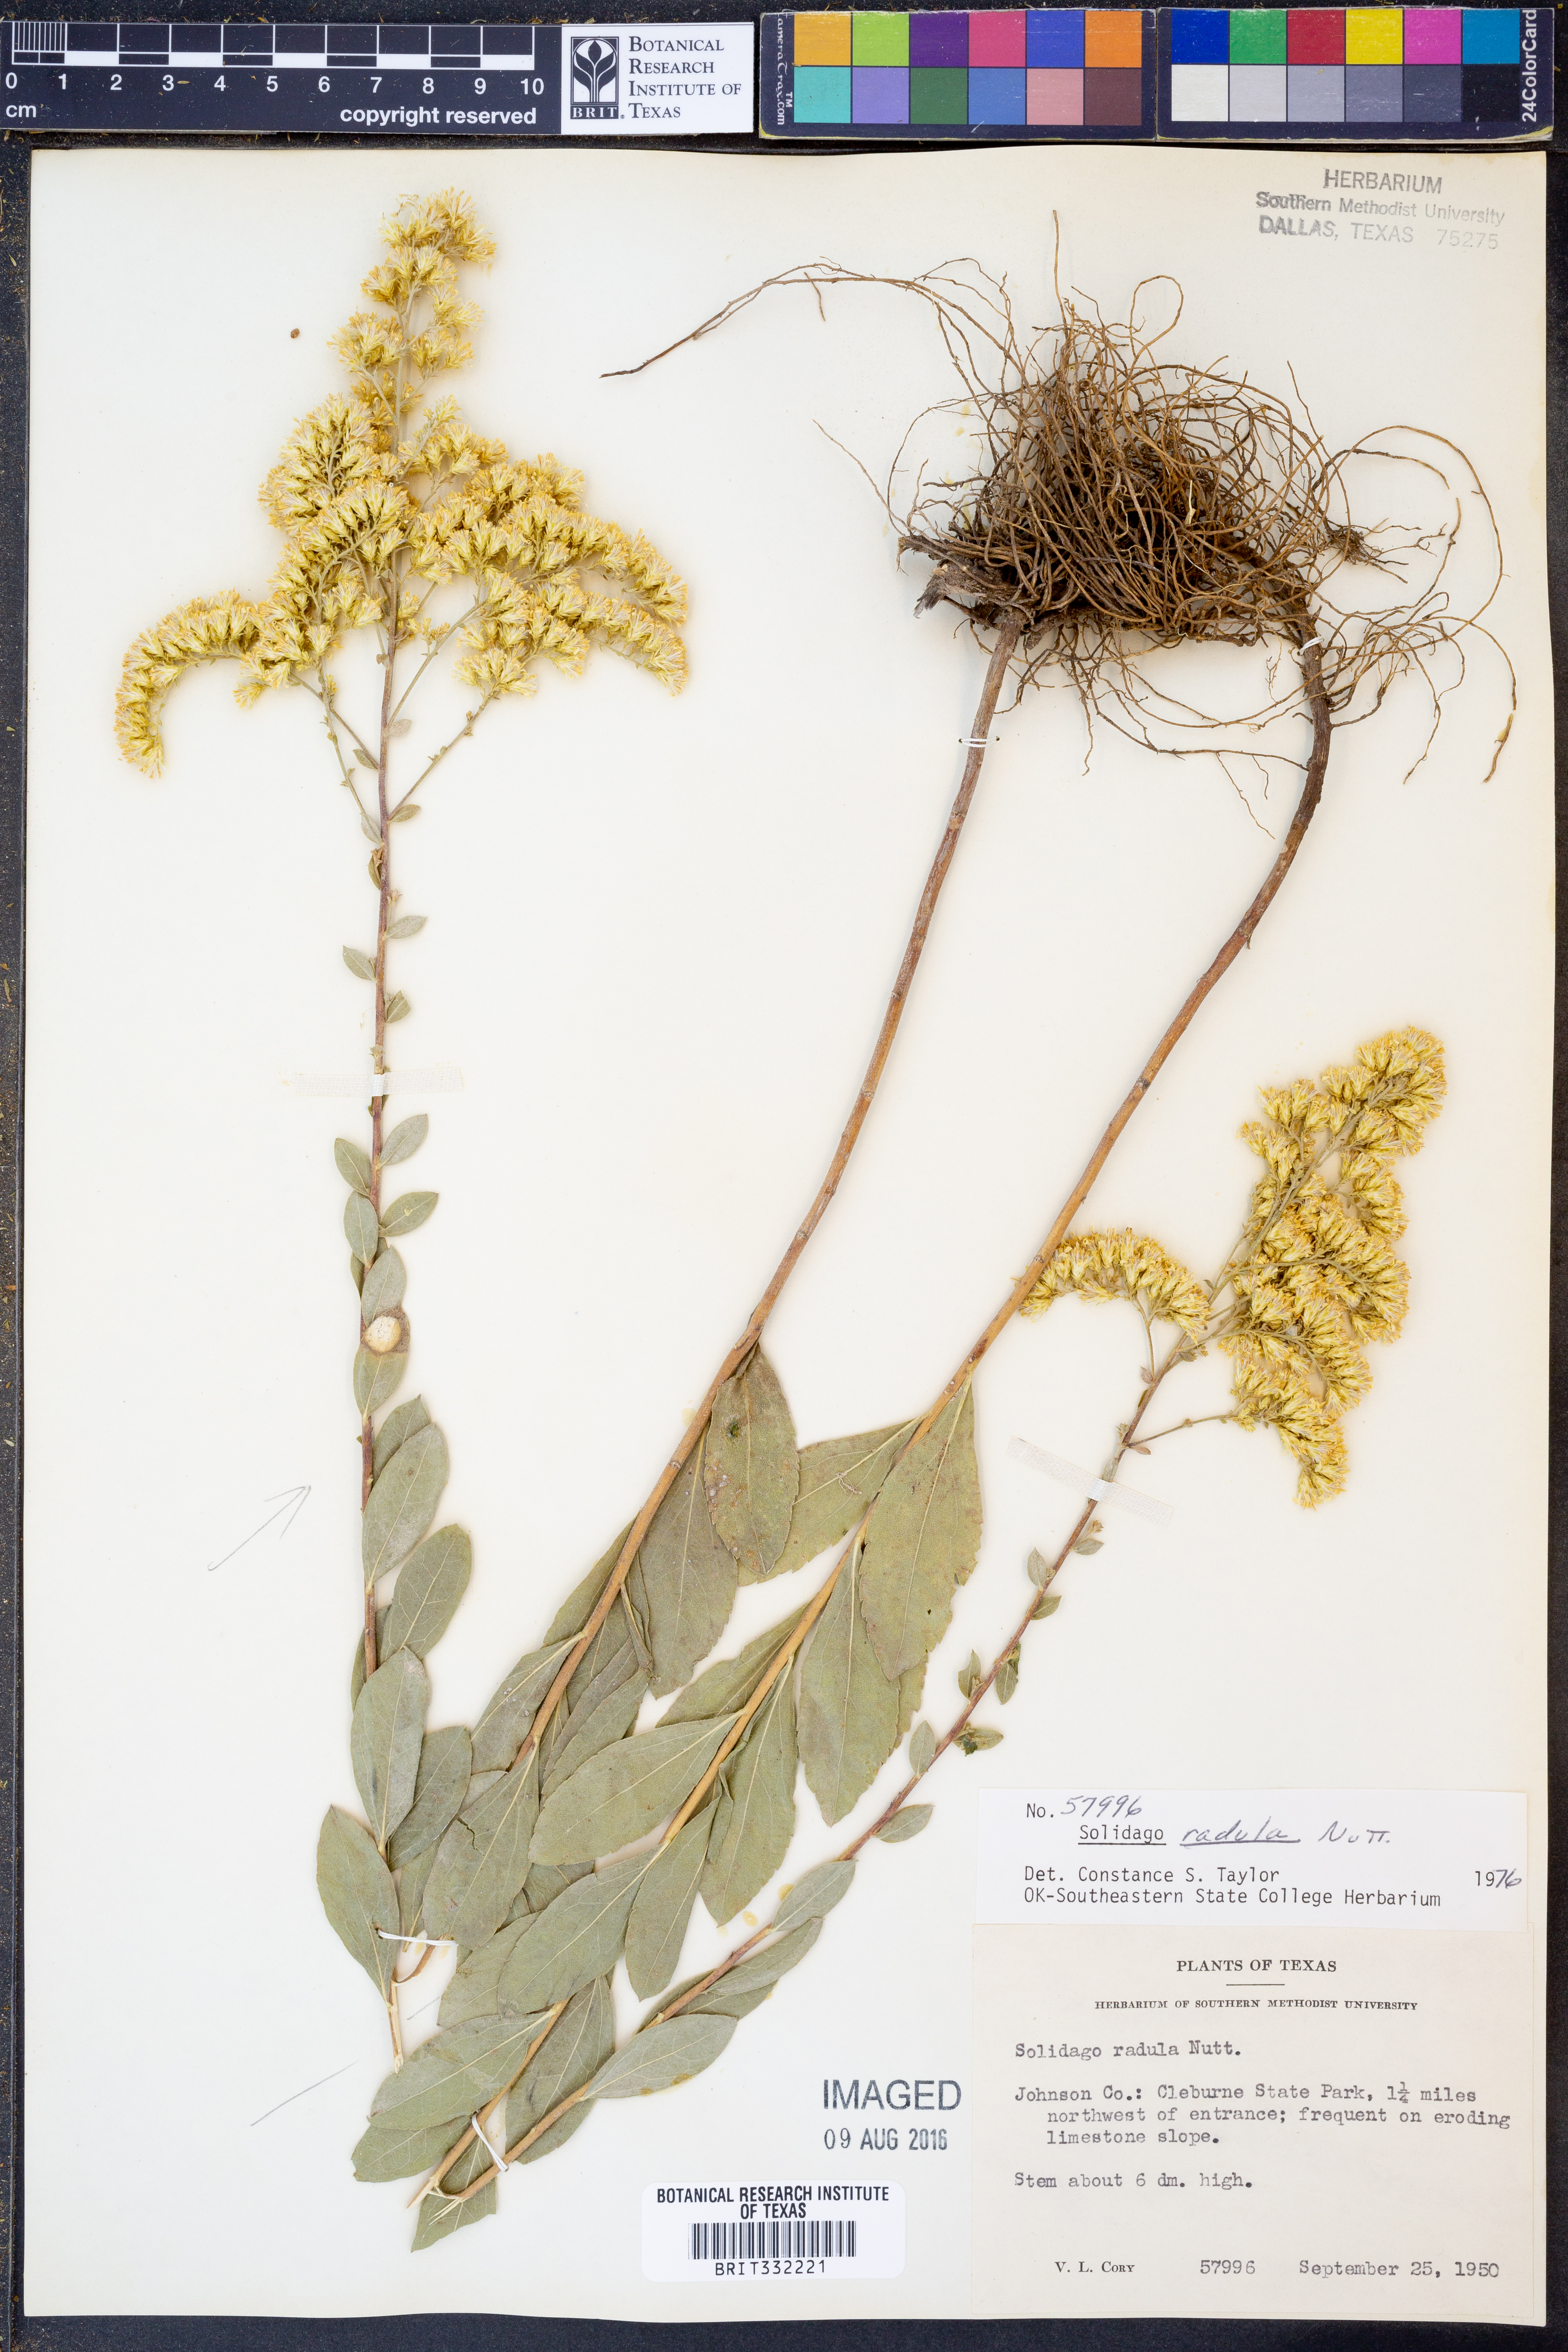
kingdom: Plantae
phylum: Tracheophyta
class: Magnoliopsida
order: Asterales
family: Asteraceae
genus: Solidago
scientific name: Solidago radula
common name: Western rough goldenrod
